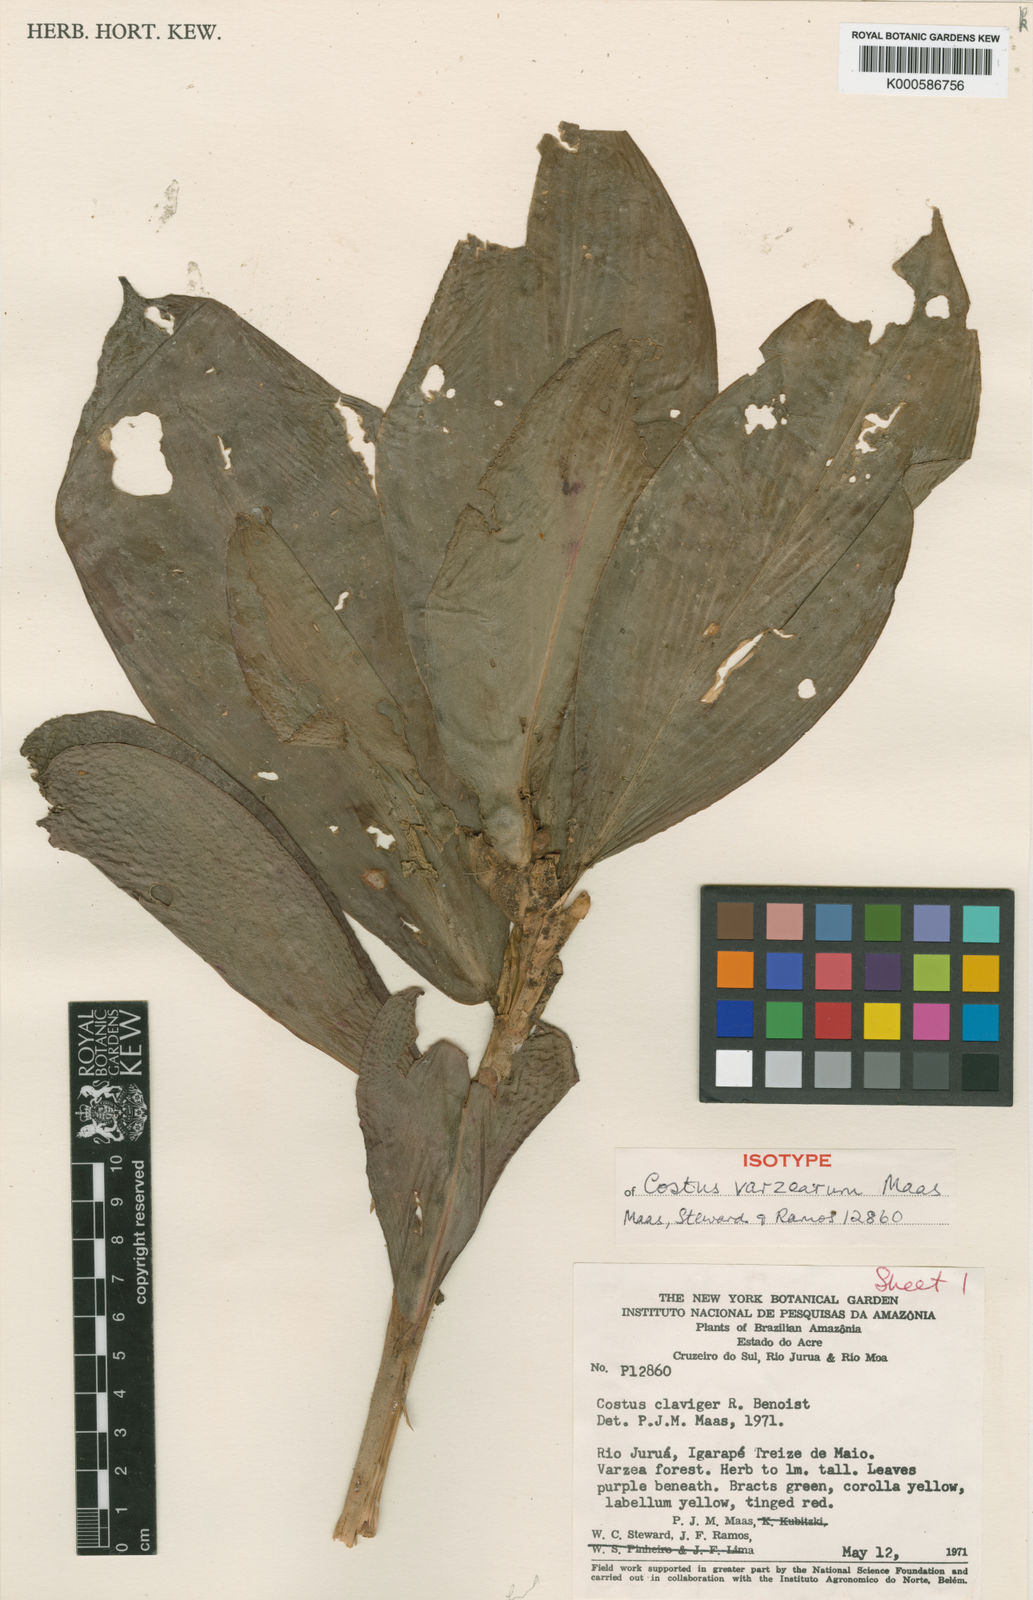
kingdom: Plantae
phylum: Tracheophyta
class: Liliopsida
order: Zingiberales
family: Costaceae
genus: Costus
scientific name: Costus varzearum
